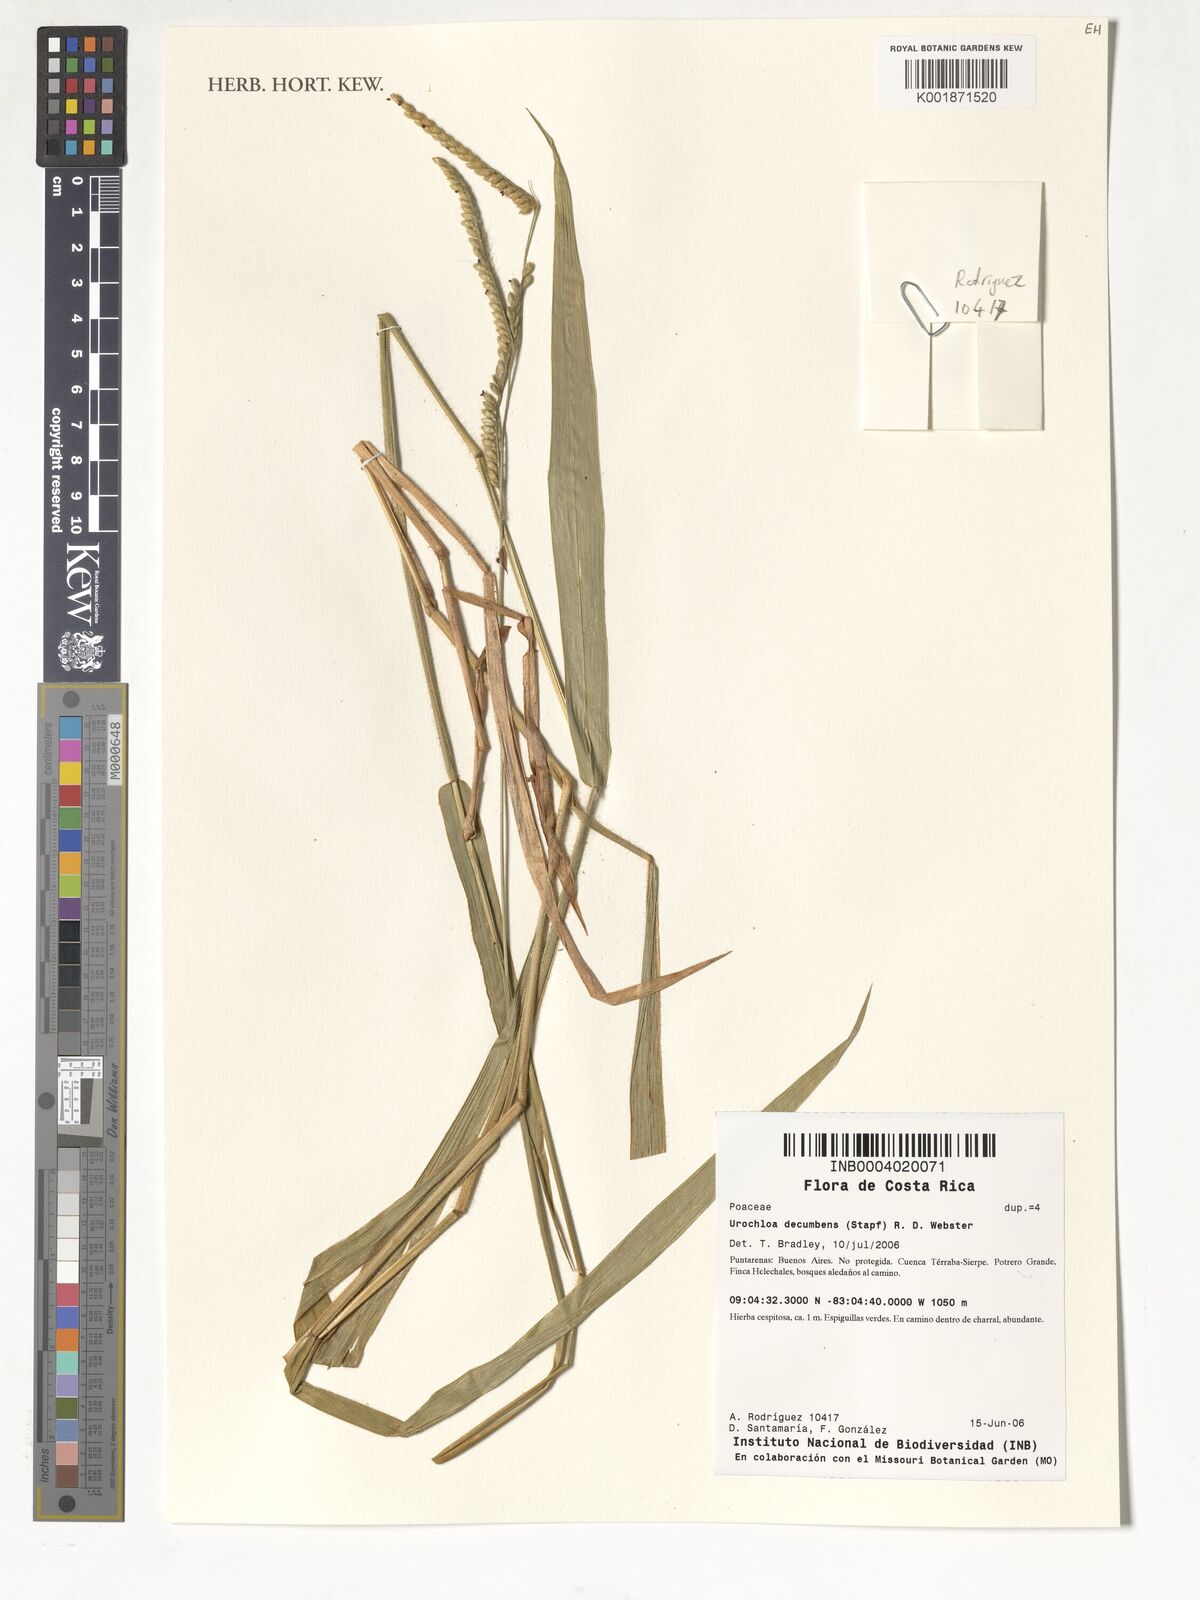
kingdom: Plantae
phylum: Tracheophyta
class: Liliopsida
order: Poales
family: Poaceae
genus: Urochloa
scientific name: Urochloa eminii
